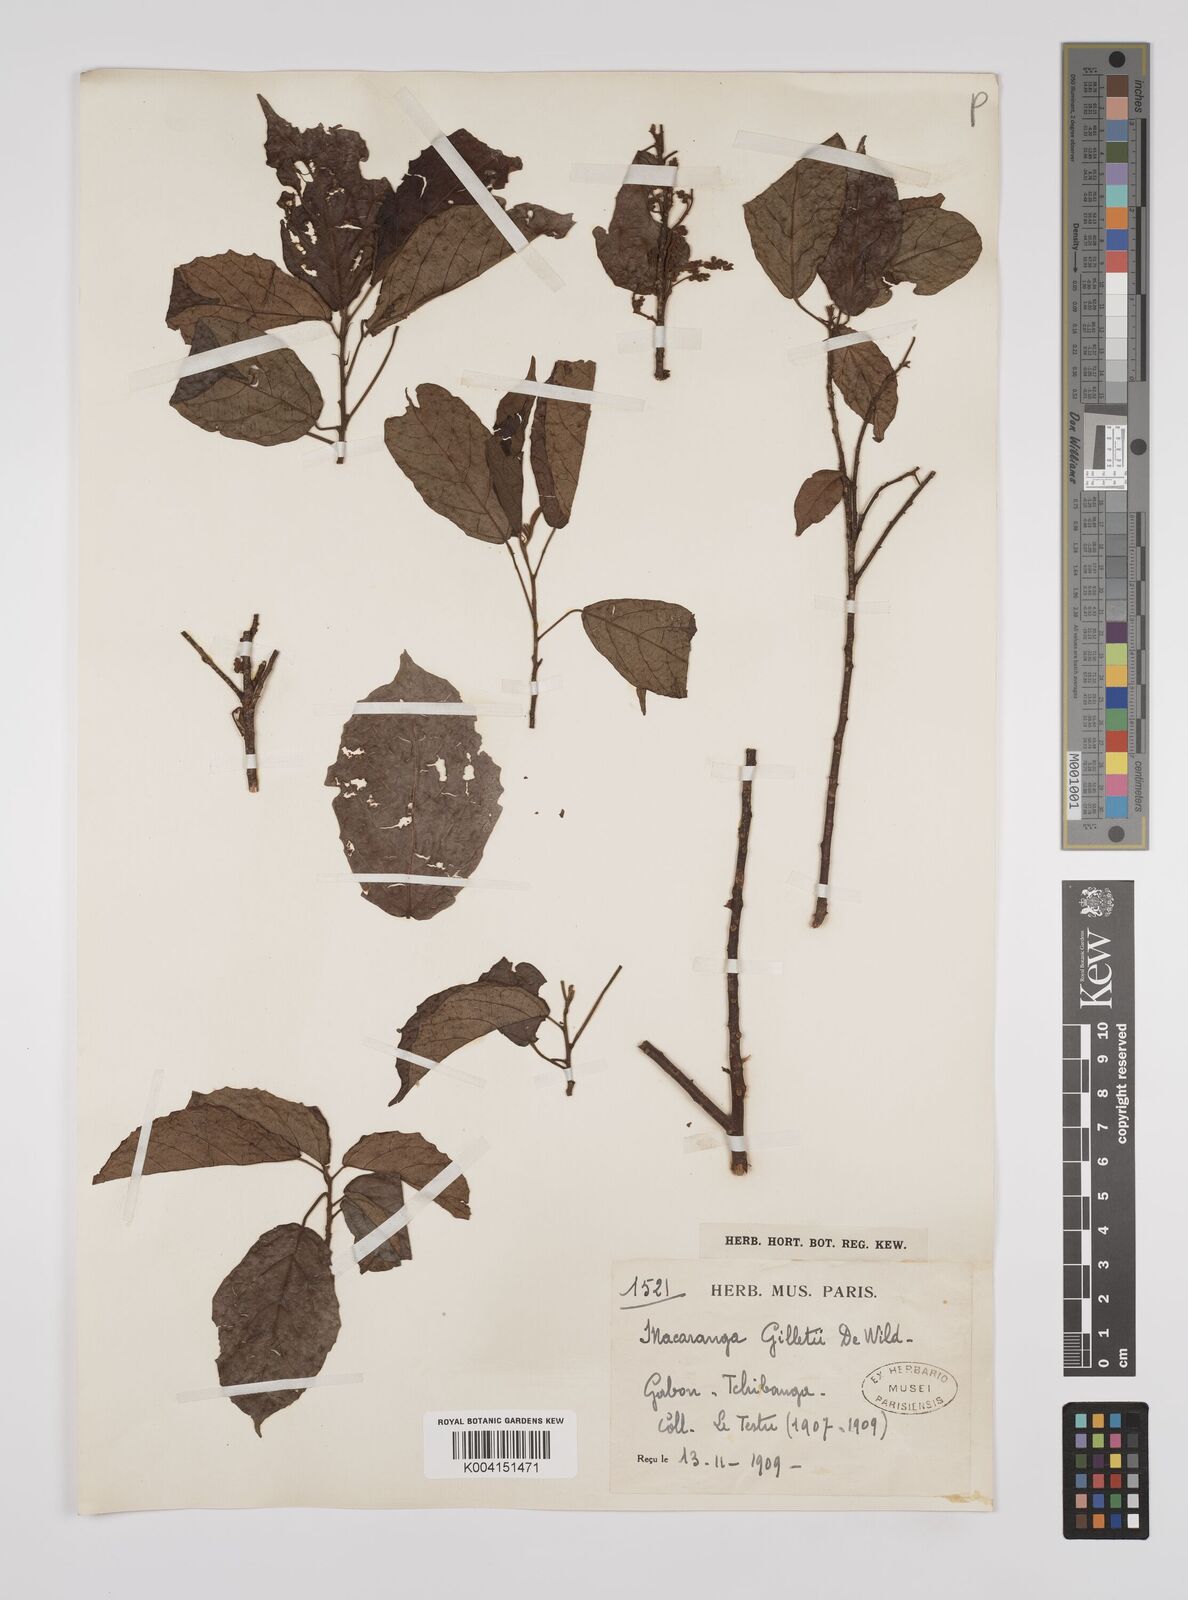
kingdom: Plantae
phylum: Tracheophyta
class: Magnoliopsida
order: Malpighiales
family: Euphorbiaceae
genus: Macaranga
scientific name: Macaranga poggei
